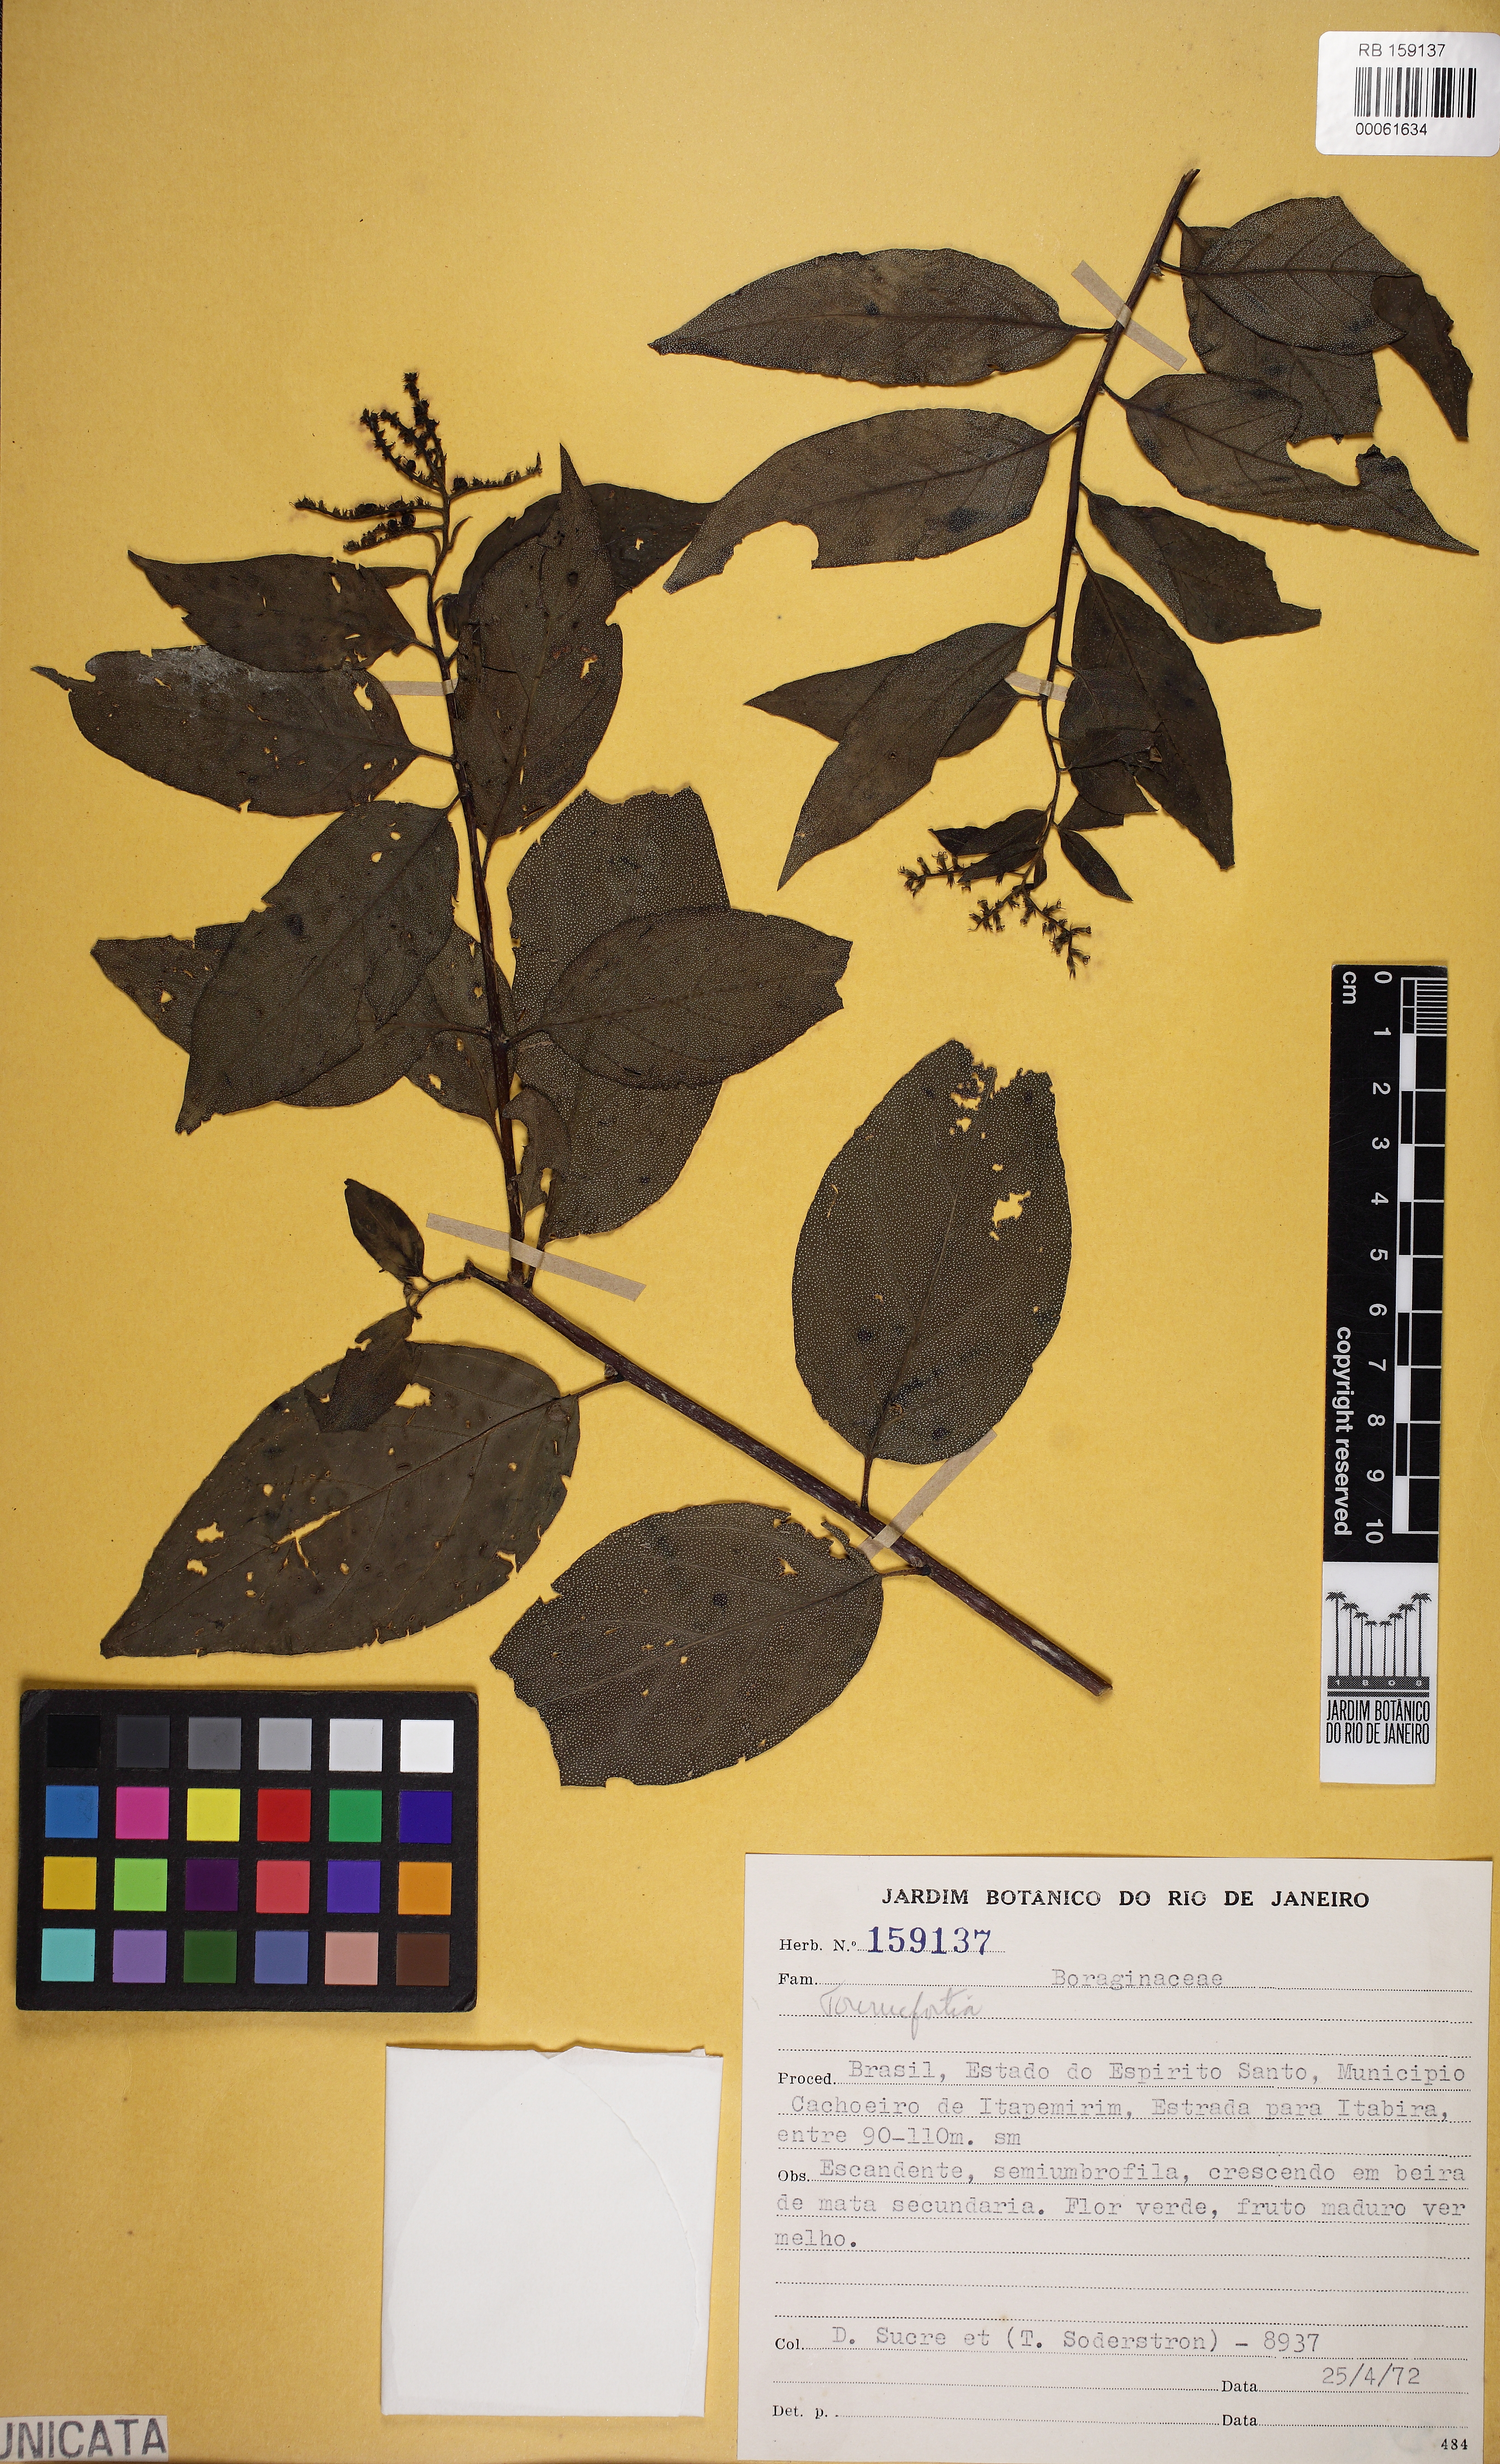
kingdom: Plantae
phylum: Tracheophyta
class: Magnoliopsida
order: Boraginales
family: Heliotropiaceae
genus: Myriopus
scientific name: Myriopus rubicundus
